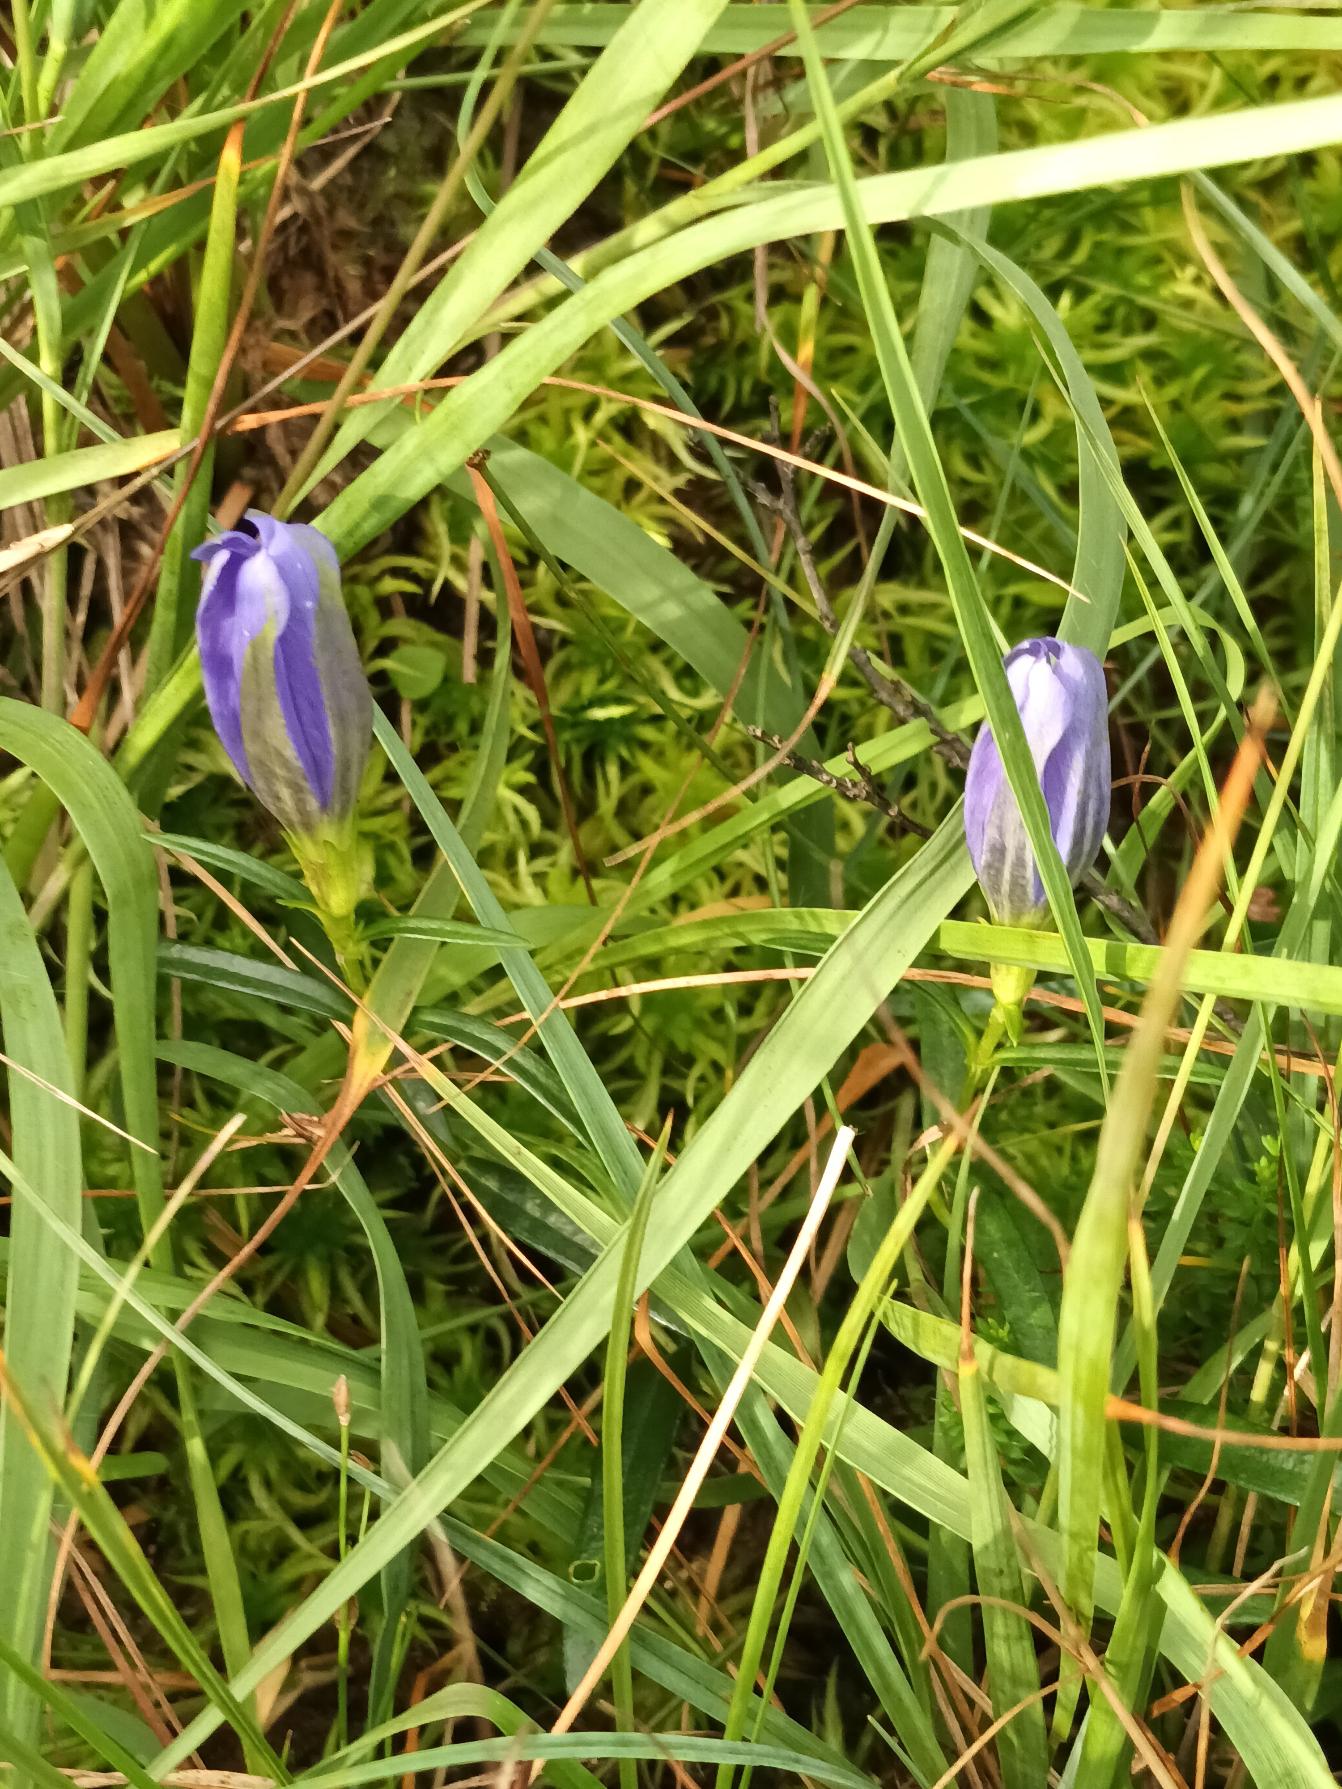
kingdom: Plantae
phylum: Tracheophyta
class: Magnoliopsida
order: Gentianales
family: Gentianaceae
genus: Gentiana
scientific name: Gentiana pneumonanthe
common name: Klokke-ensian
